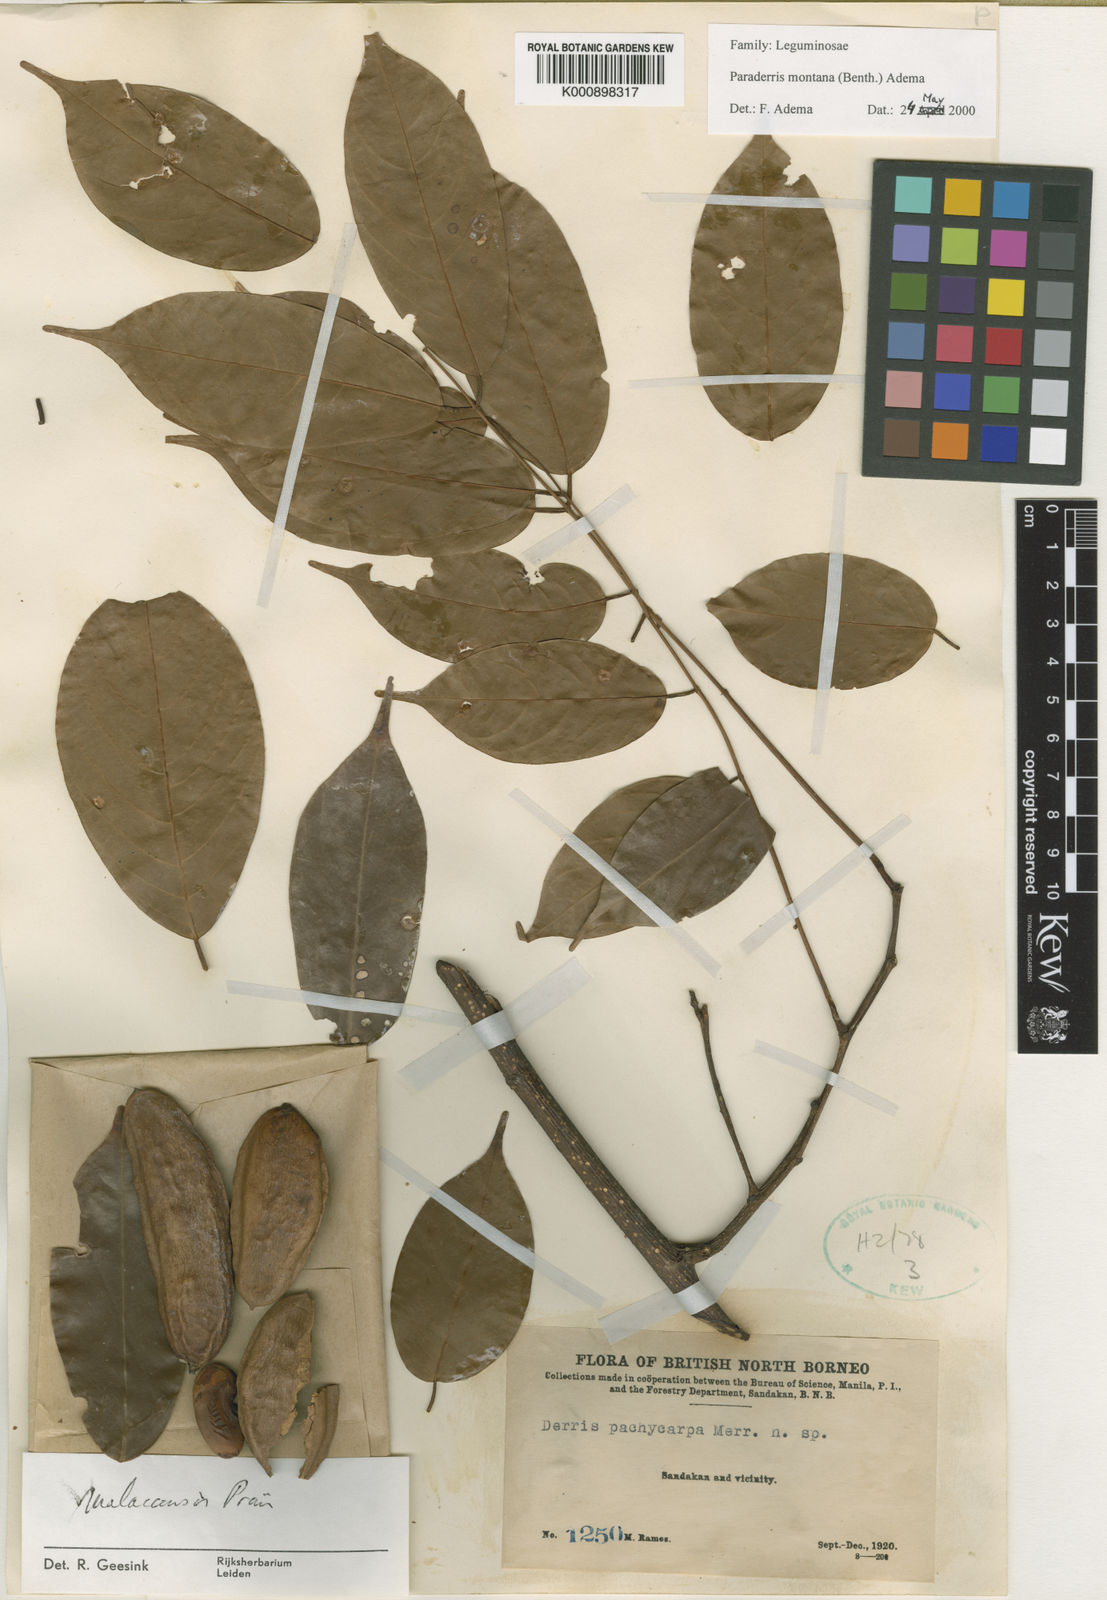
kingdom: Plantae
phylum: Tracheophyta
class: Magnoliopsida
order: Fabales
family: Fabaceae
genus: Derris
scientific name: Derris montana
